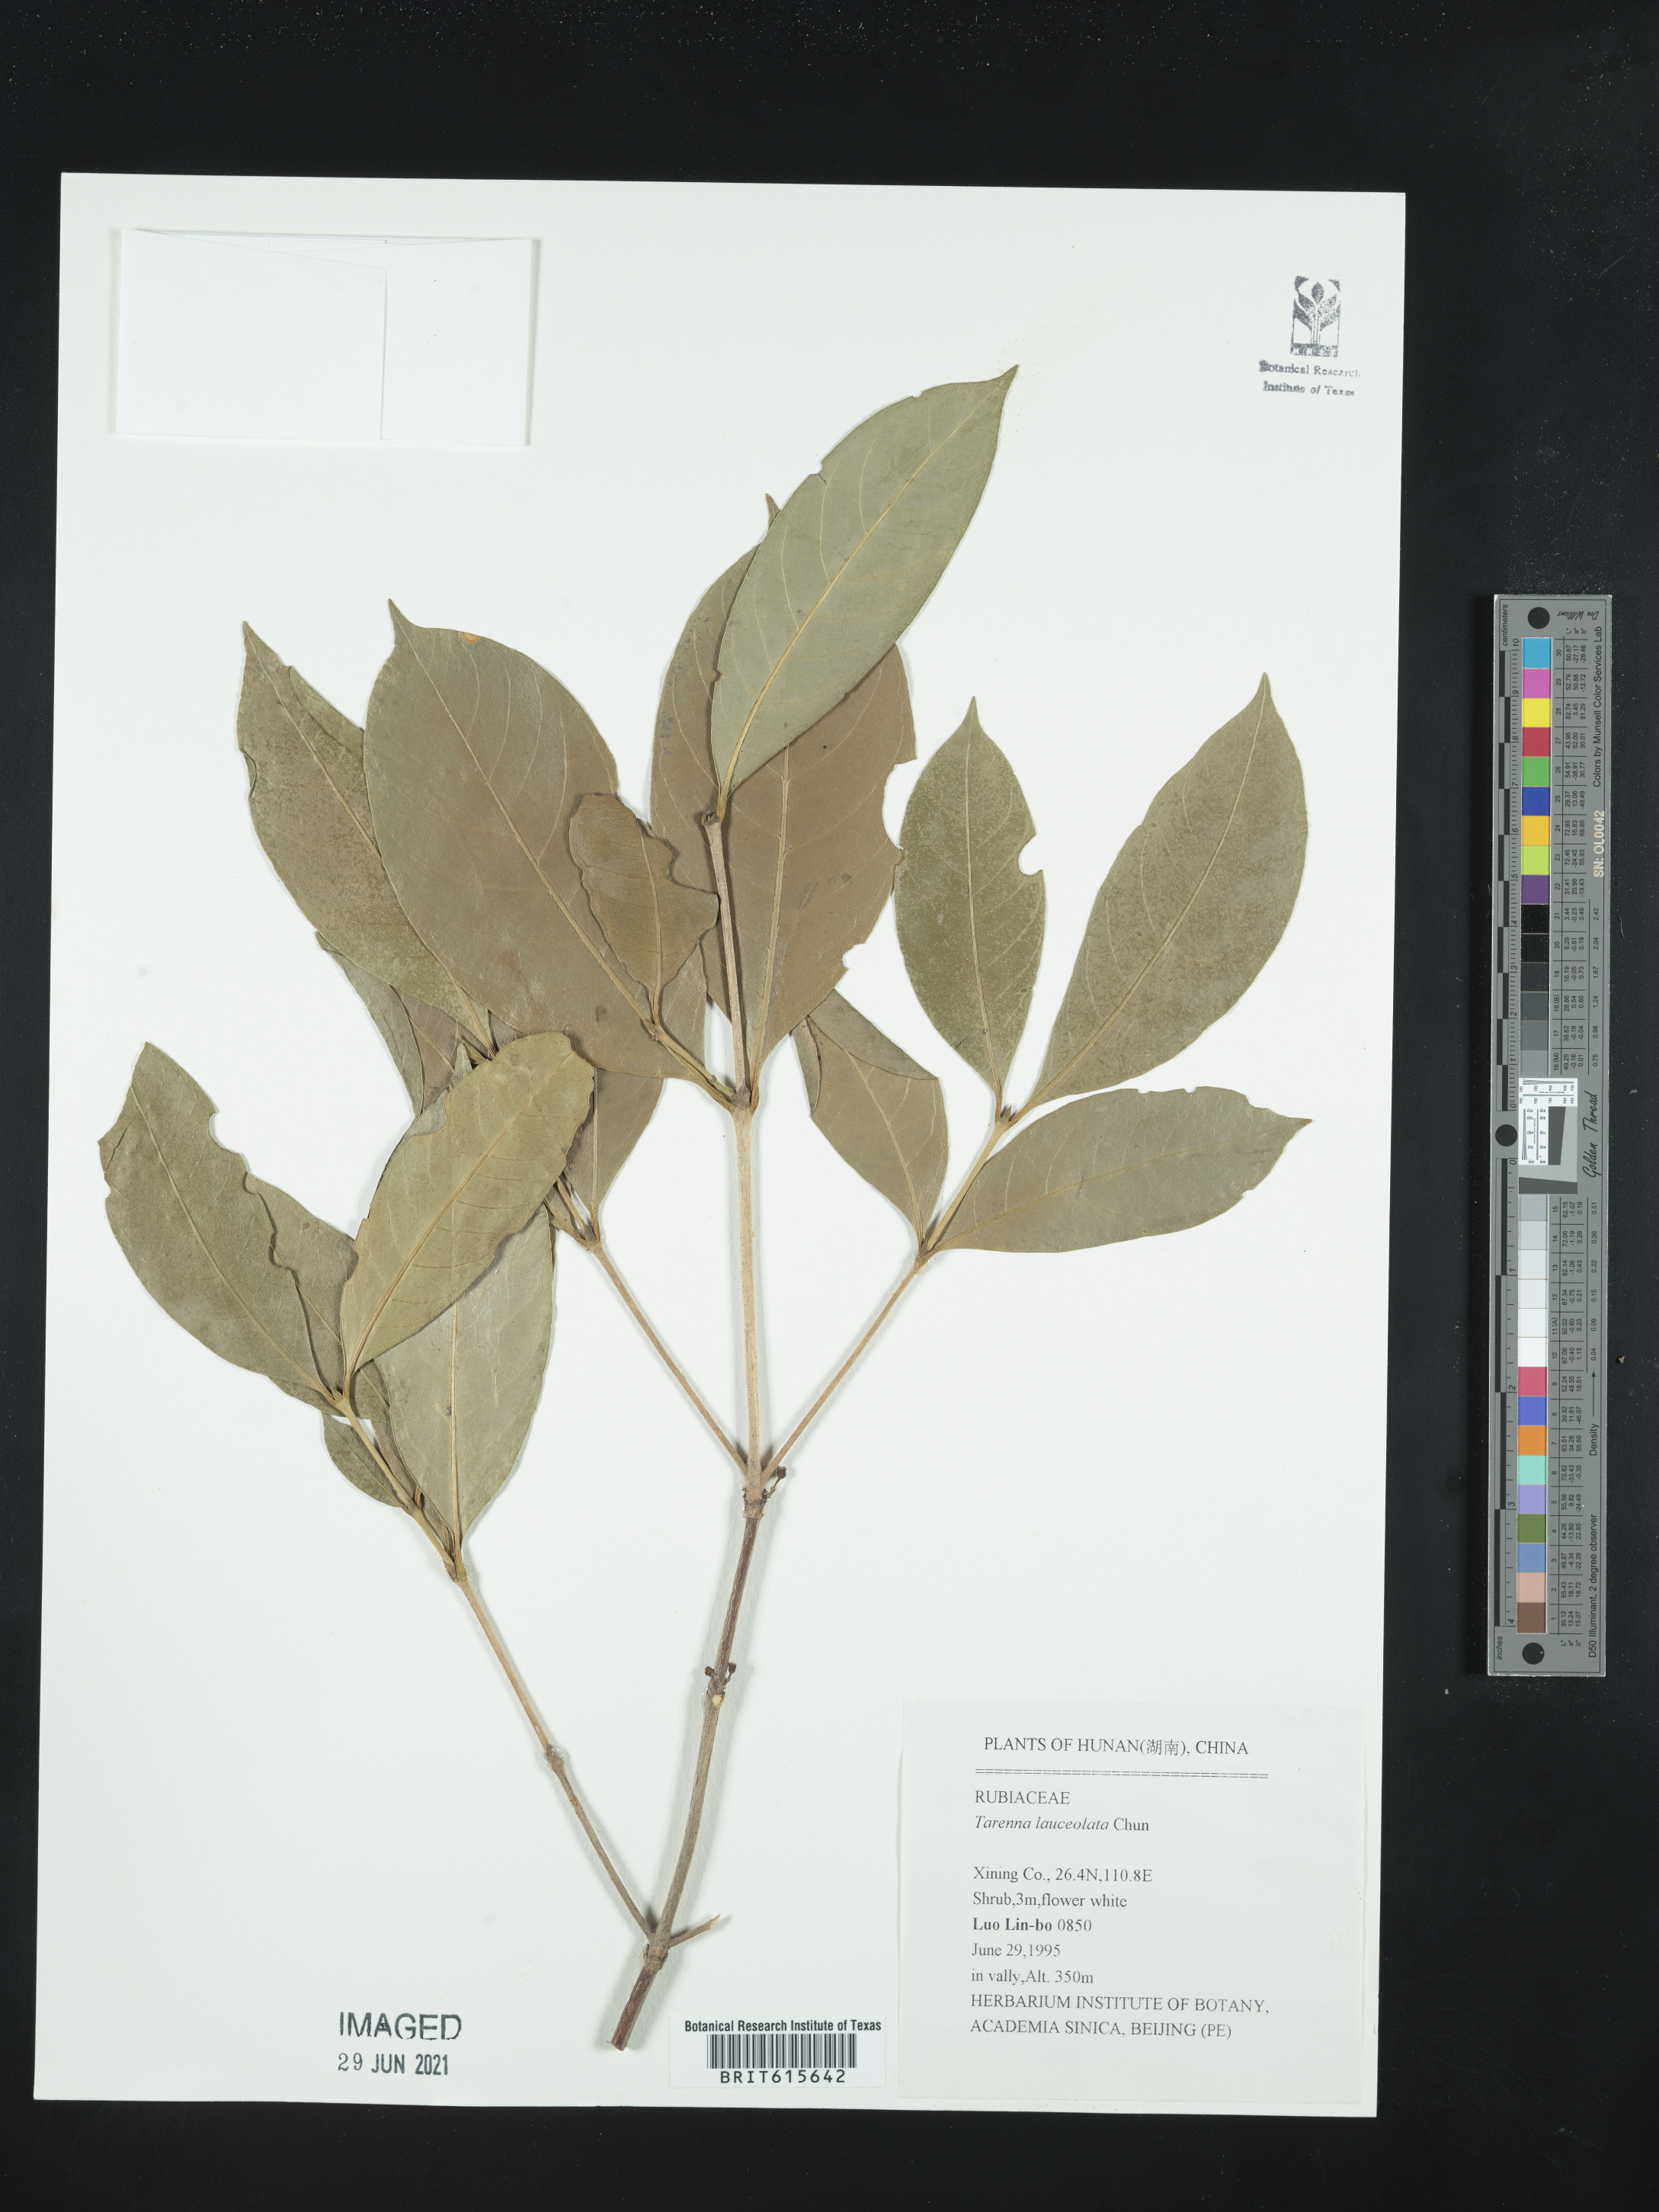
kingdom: Plantae
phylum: Tracheophyta
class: Magnoliopsida
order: Gentianales
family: Rubiaceae
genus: Tarenna
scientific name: Tarenna lanceolata
